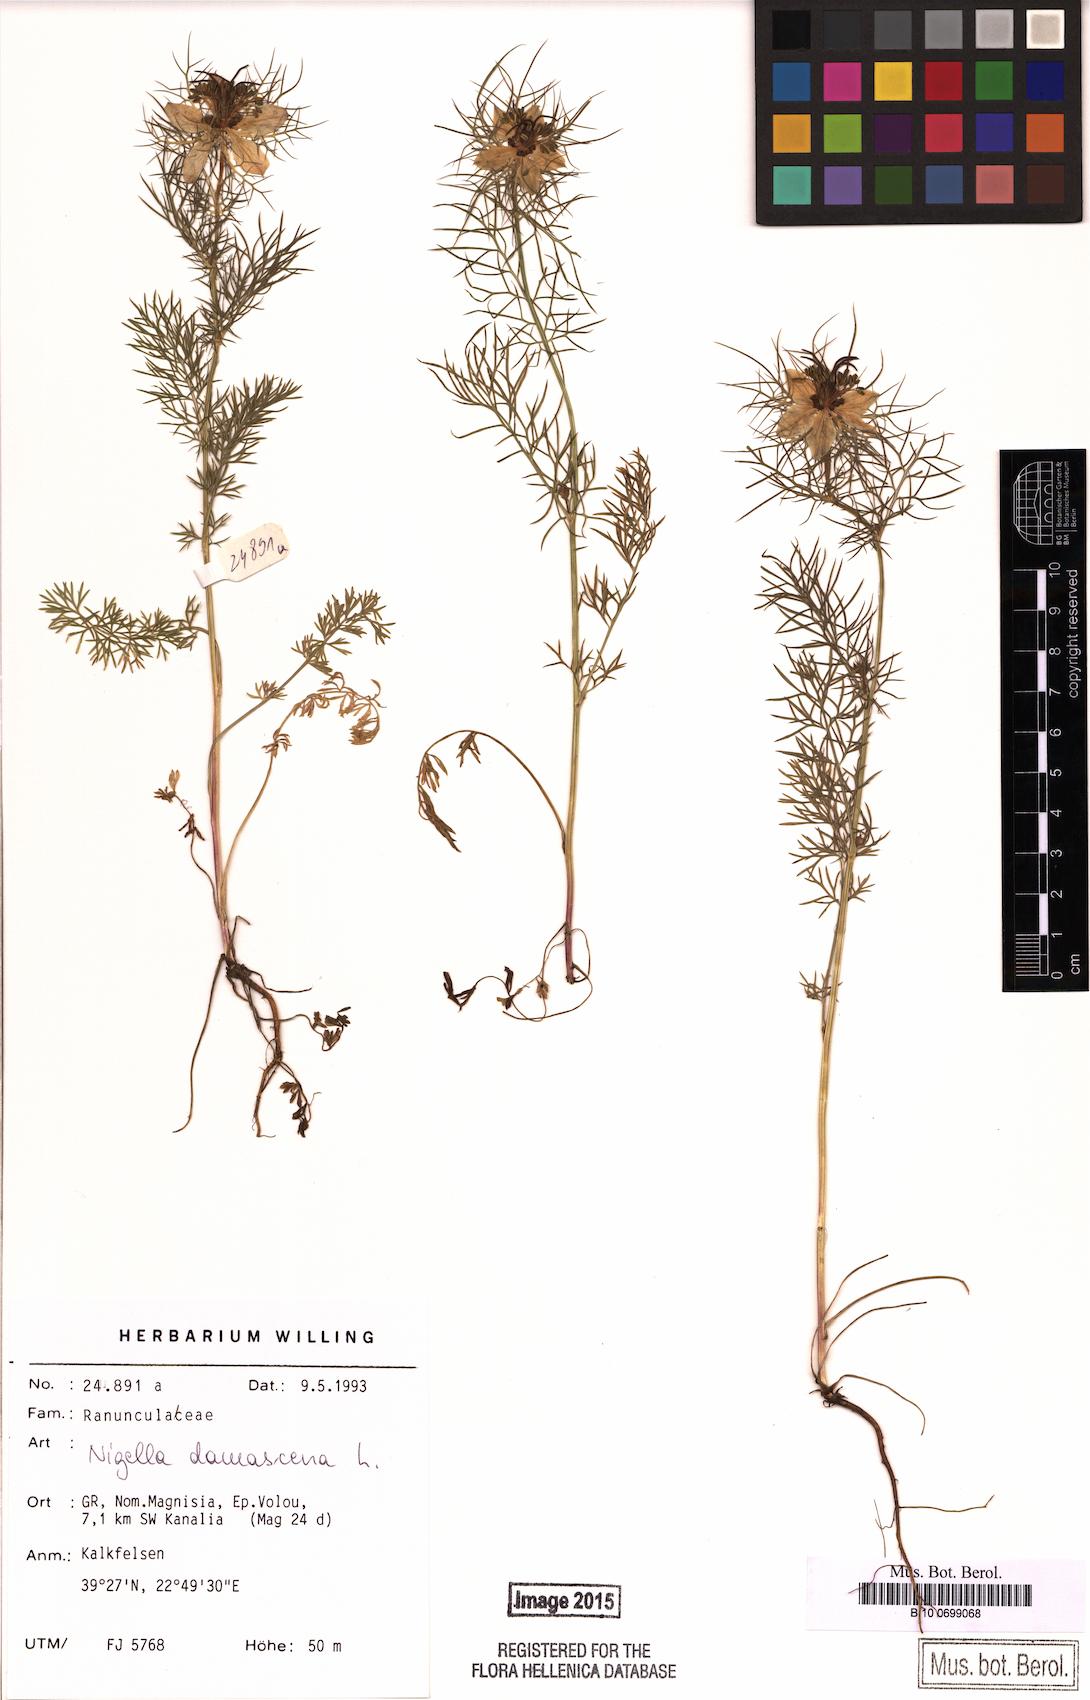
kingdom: Plantae
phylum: Tracheophyta
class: Magnoliopsida
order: Ranunculales
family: Ranunculaceae
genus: Nigella
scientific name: Nigella damascena
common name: Love-in-a-mist
